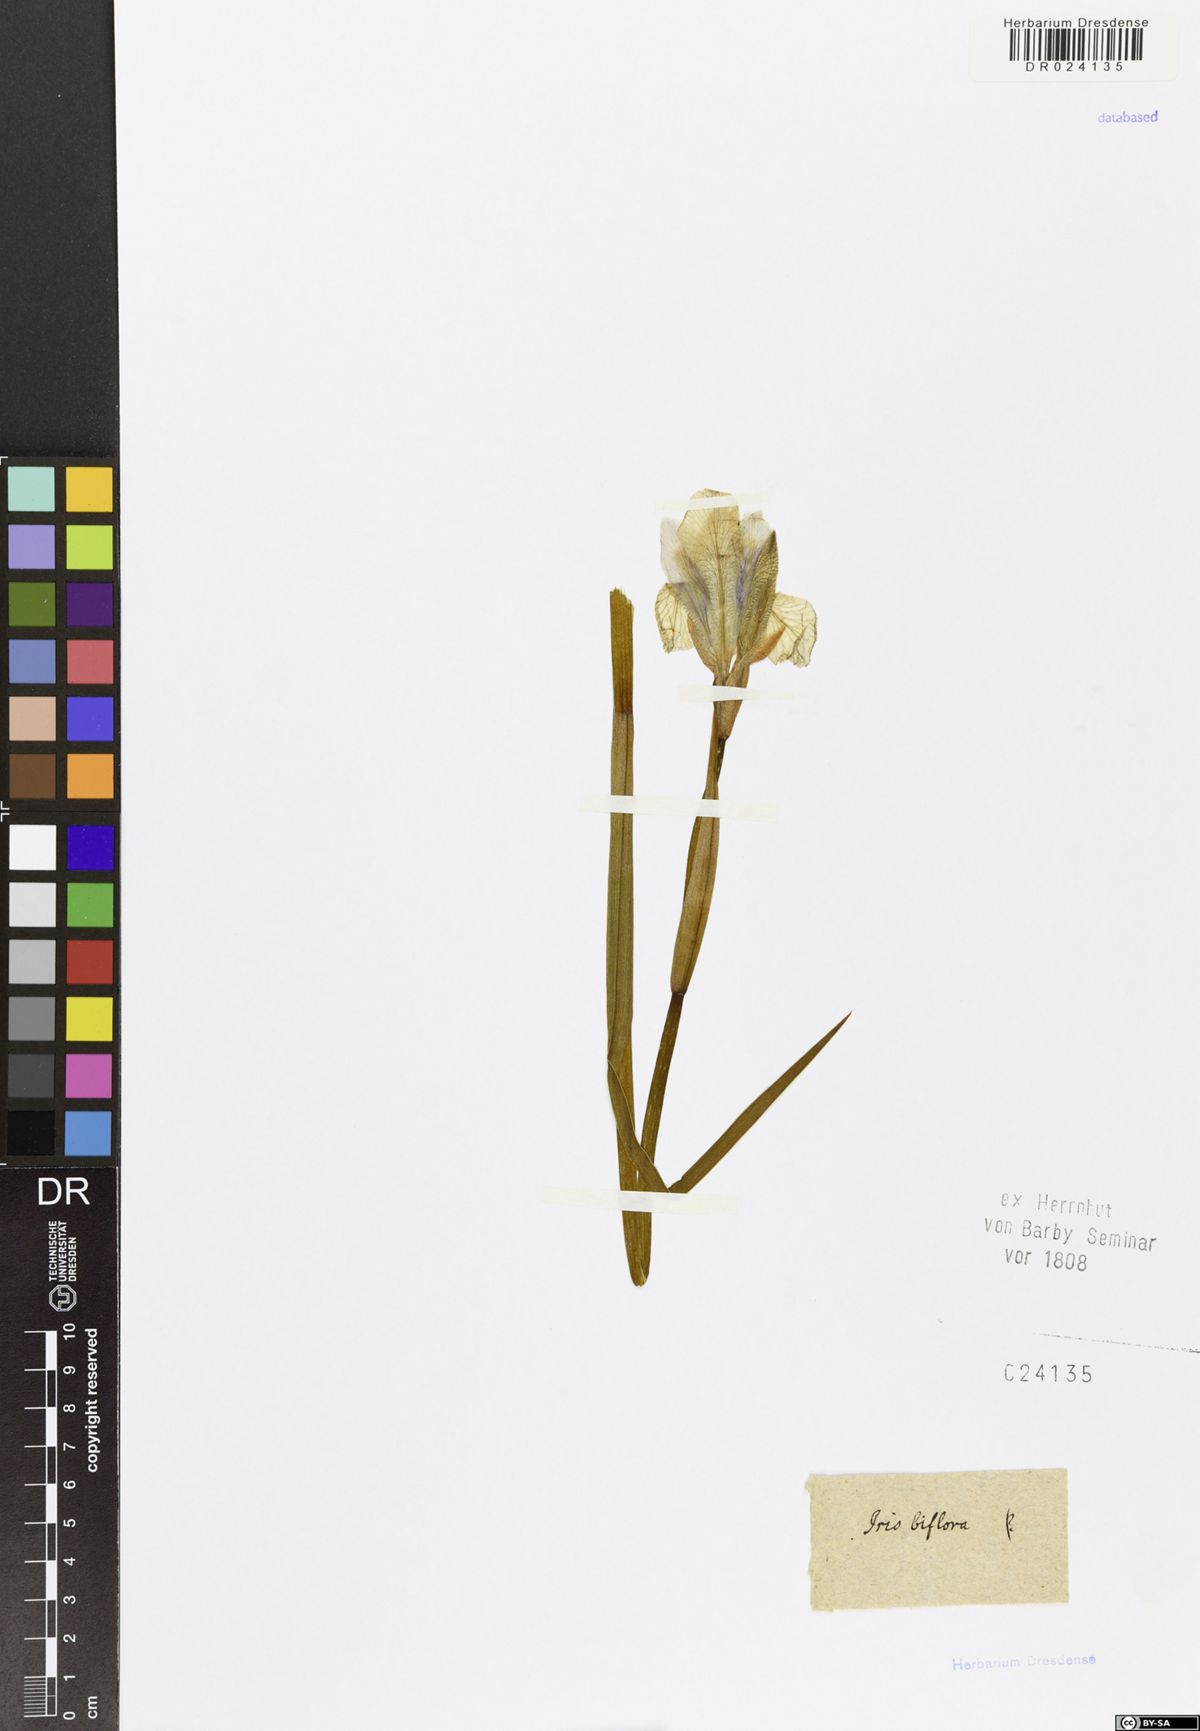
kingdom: Plantae
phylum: Tracheophyta
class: Liliopsida
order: Asparagales
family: Iridaceae
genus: Iris
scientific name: Iris pumila
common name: Dwarf iris
